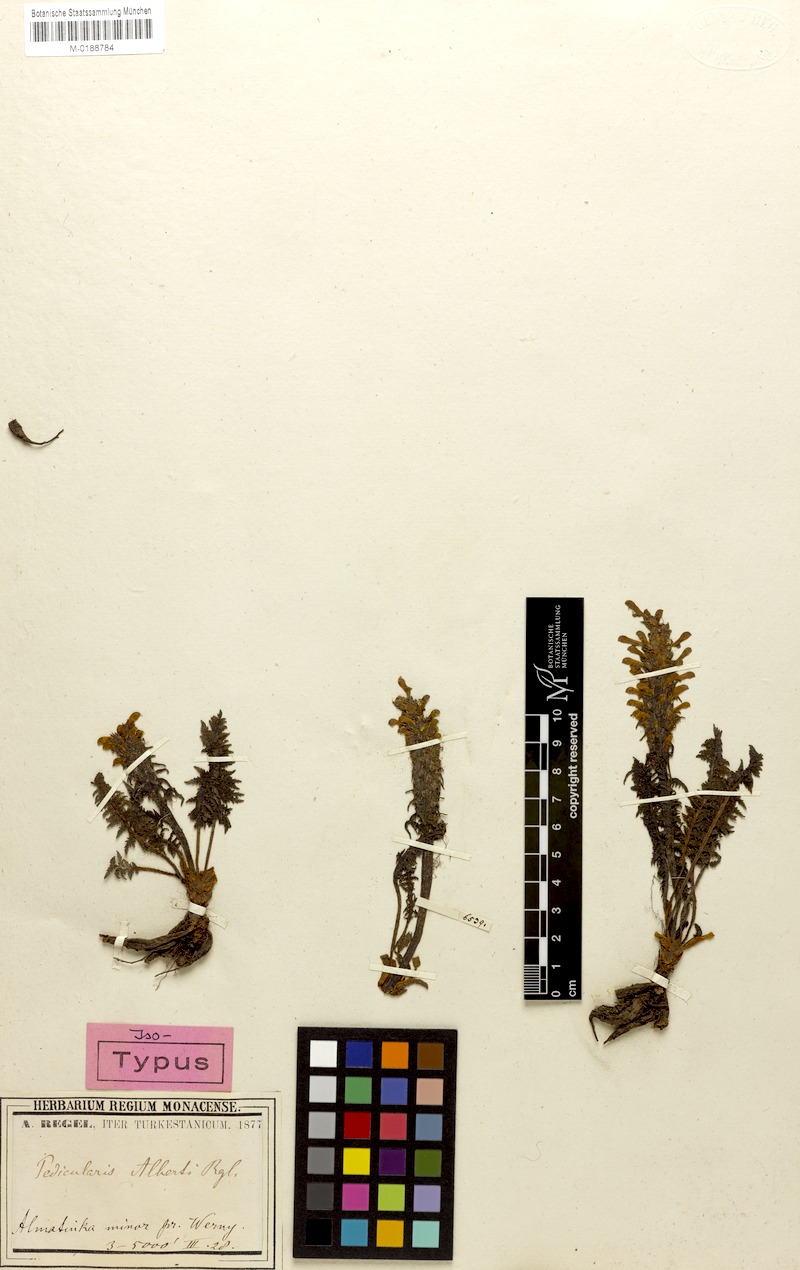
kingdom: Plantae
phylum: Tracheophyta
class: Magnoliopsida
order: Lamiales
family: Orobanchaceae
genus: Pedicularis
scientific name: Pedicularis alberti
